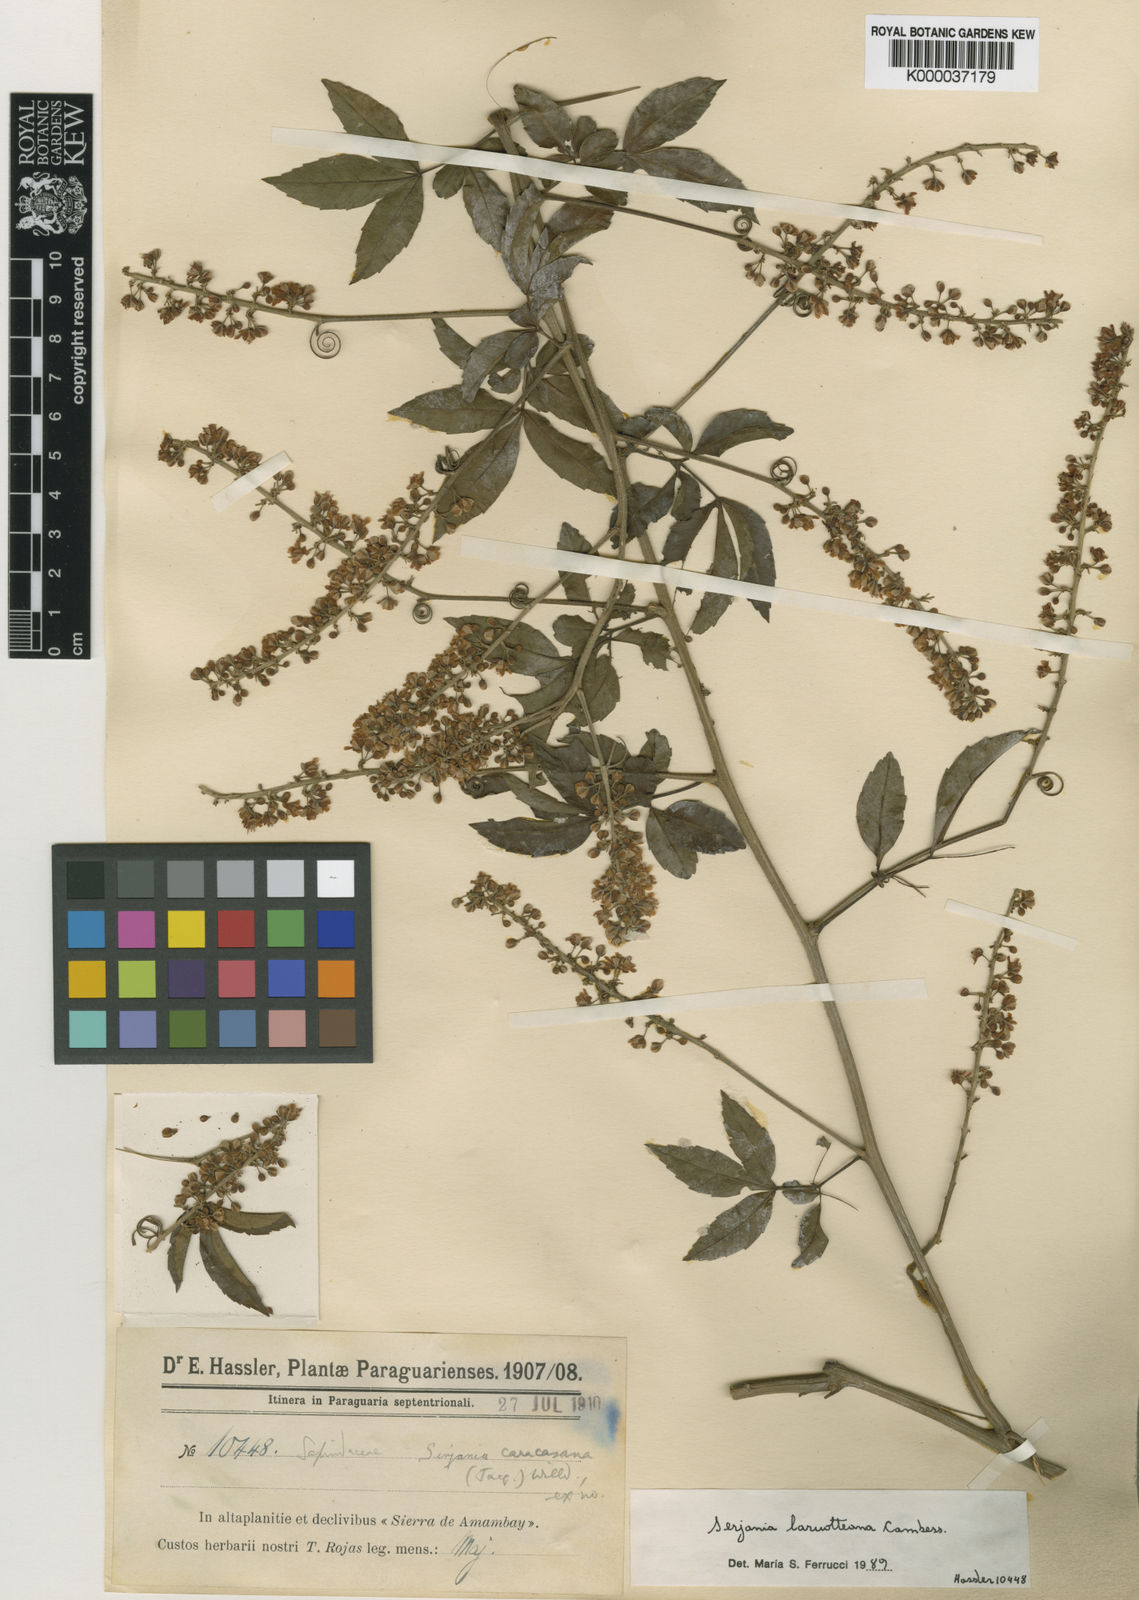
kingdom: Plantae
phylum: Tracheophyta
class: Magnoliopsida
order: Sapindales
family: Sapindaceae
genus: Serjania
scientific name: Serjania laruotteana
